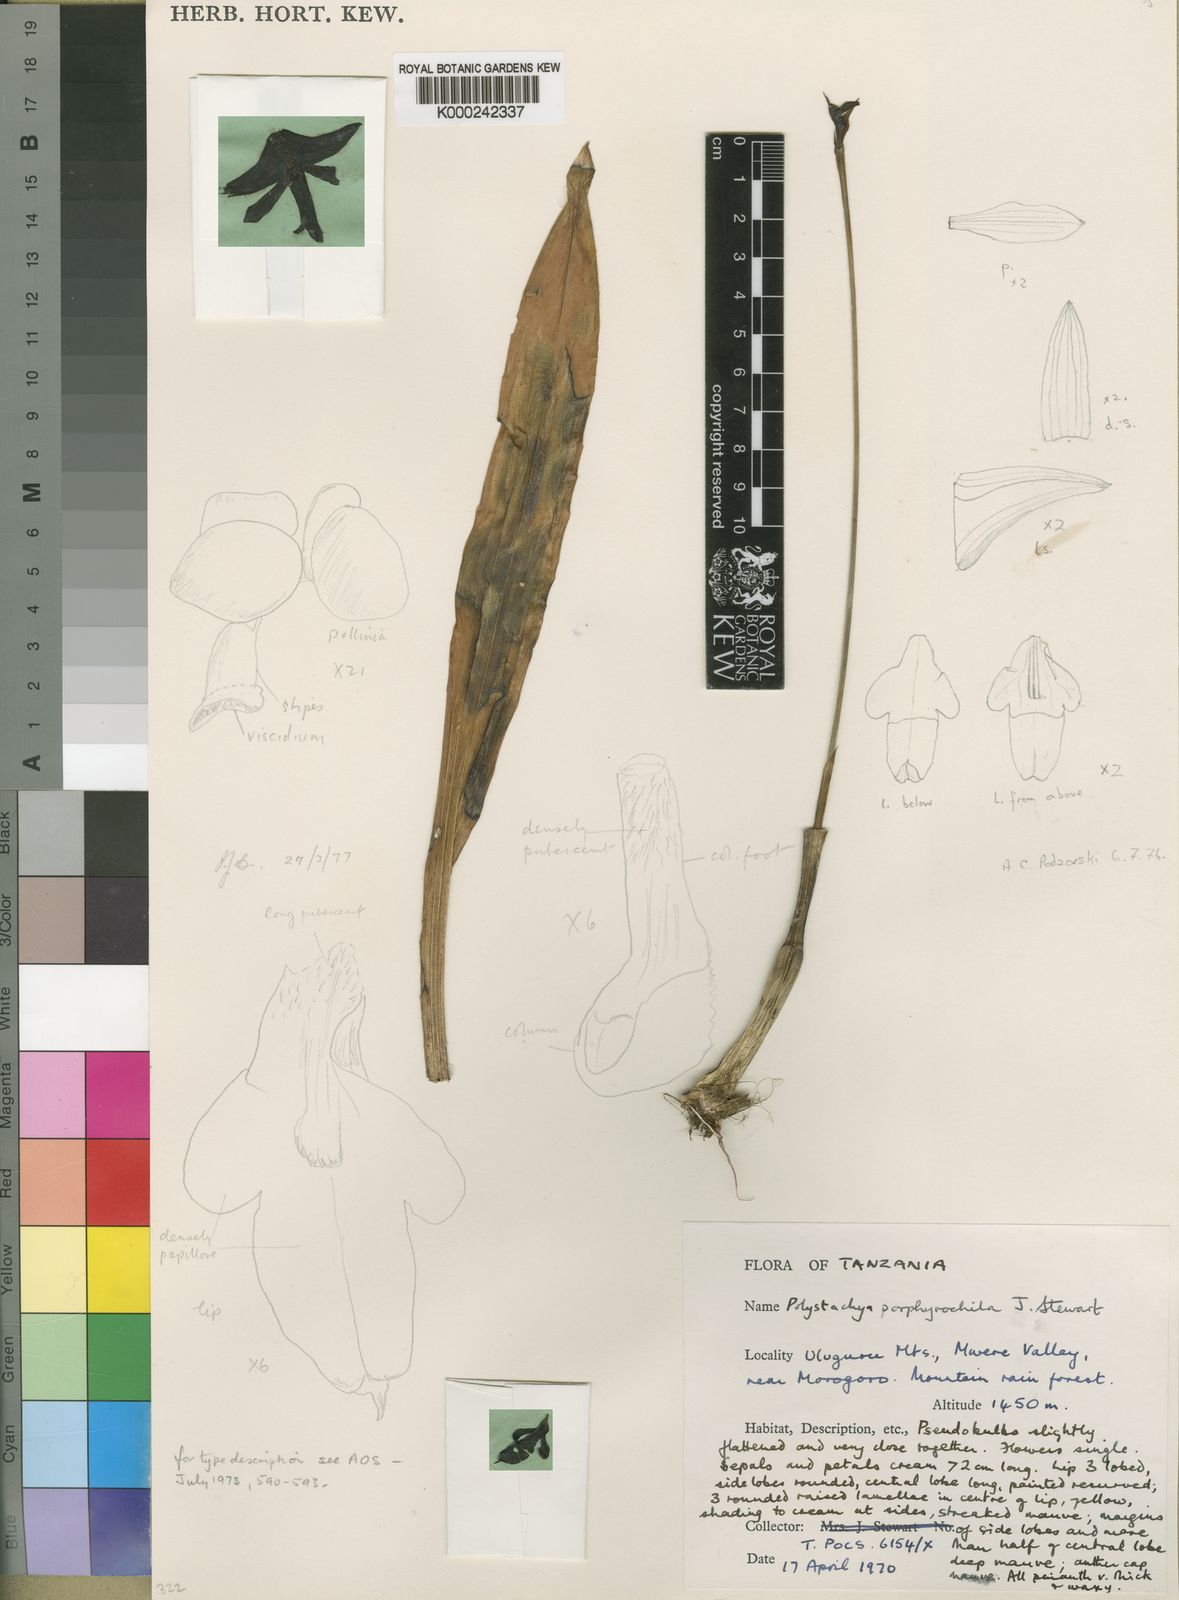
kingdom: Plantae
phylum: Tracheophyta
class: Liliopsida
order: Asparagales
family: Orchidaceae
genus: Polystachya
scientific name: Polystachya porphyrochila
